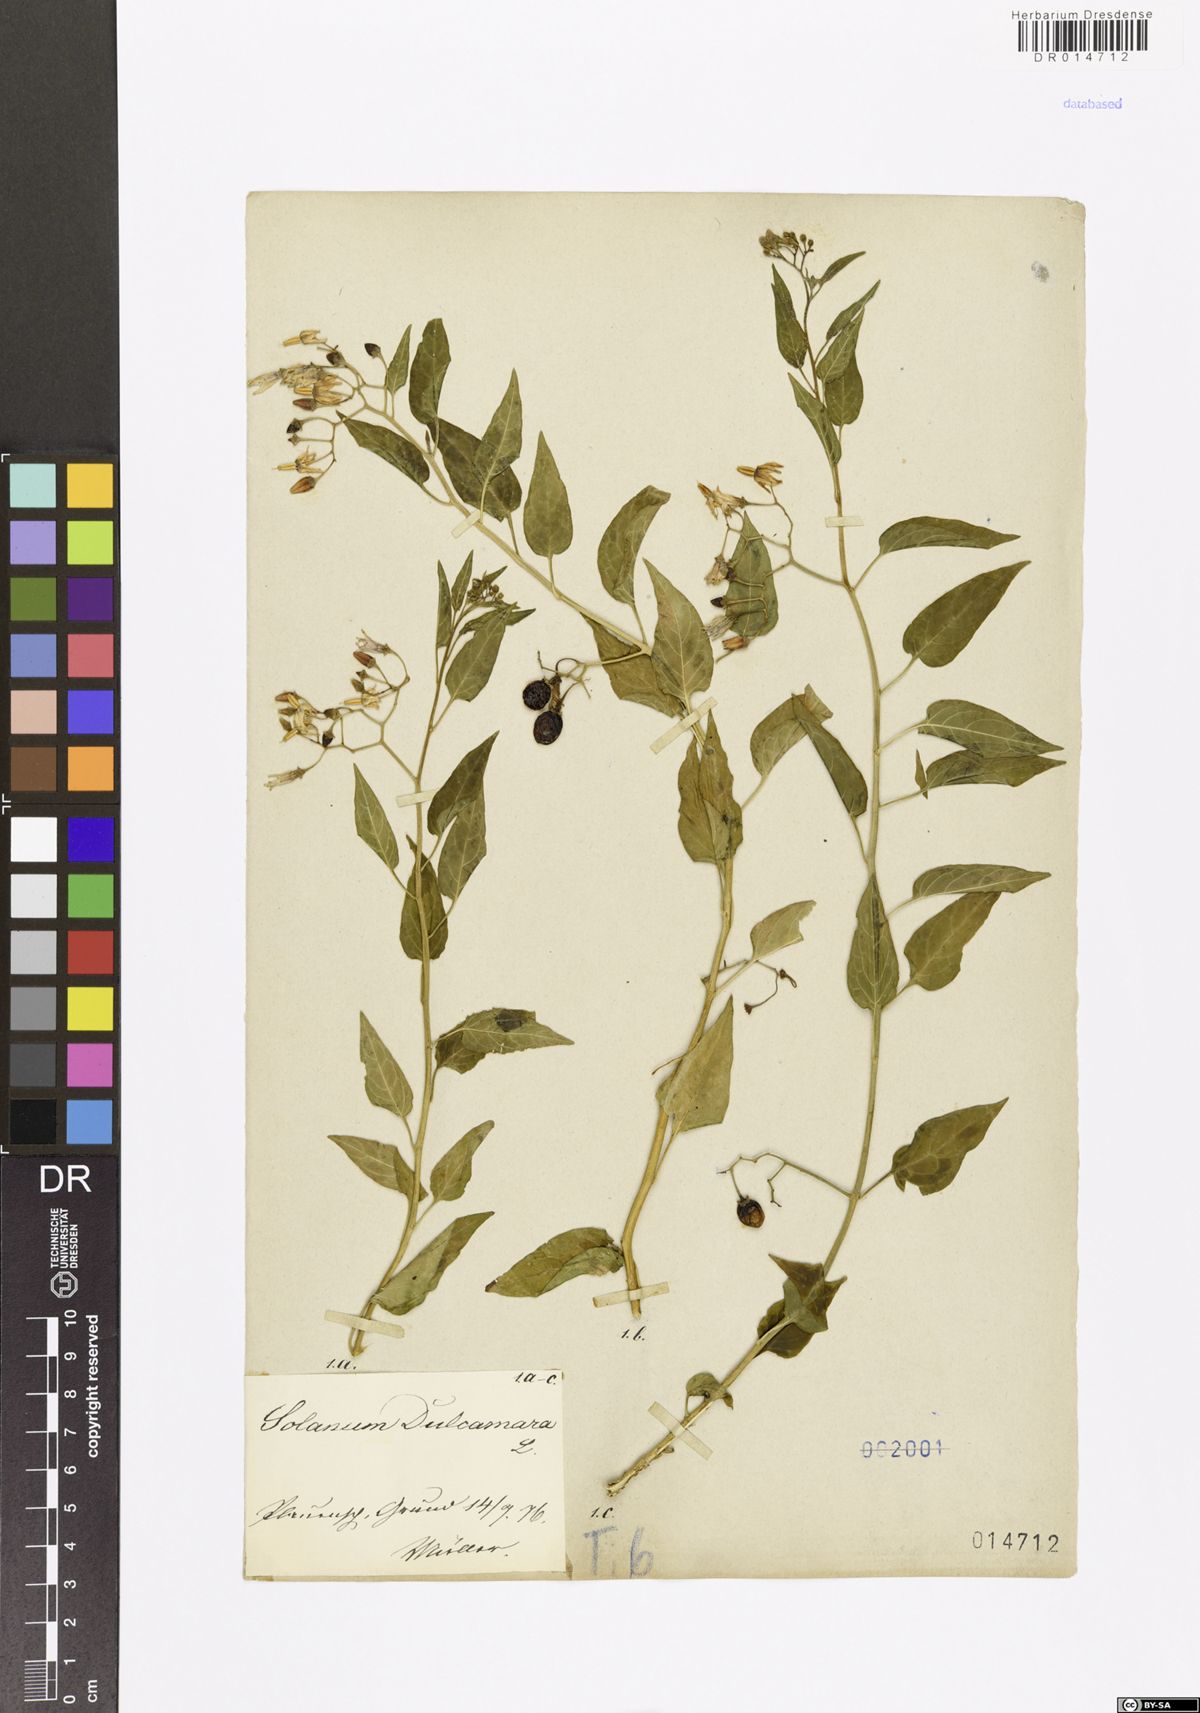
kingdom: Plantae
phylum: Tracheophyta
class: Magnoliopsida
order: Solanales
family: Solanaceae
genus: Solanum
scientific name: Solanum dulcamara
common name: Climbing nightshade
